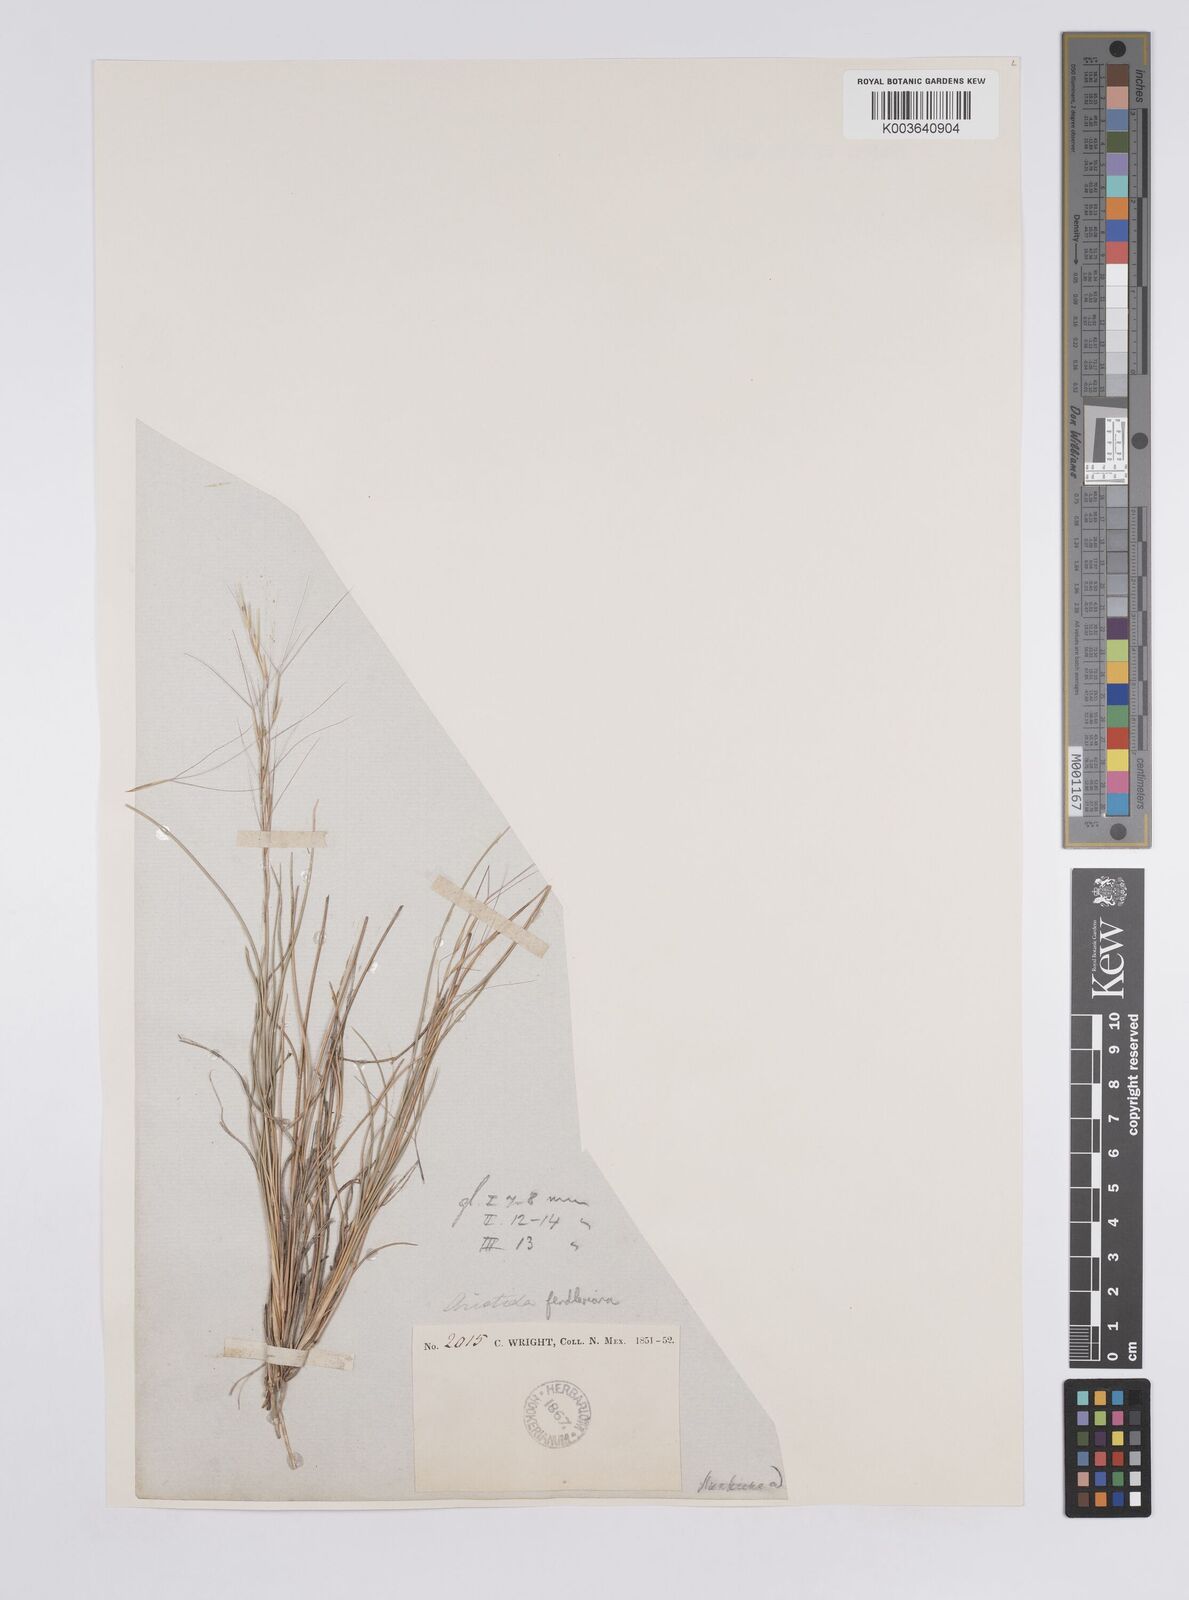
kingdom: Plantae
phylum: Tracheophyta
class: Liliopsida
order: Poales
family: Poaceae
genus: Aristida
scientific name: Aristida purpurea
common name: Purple threeawn
